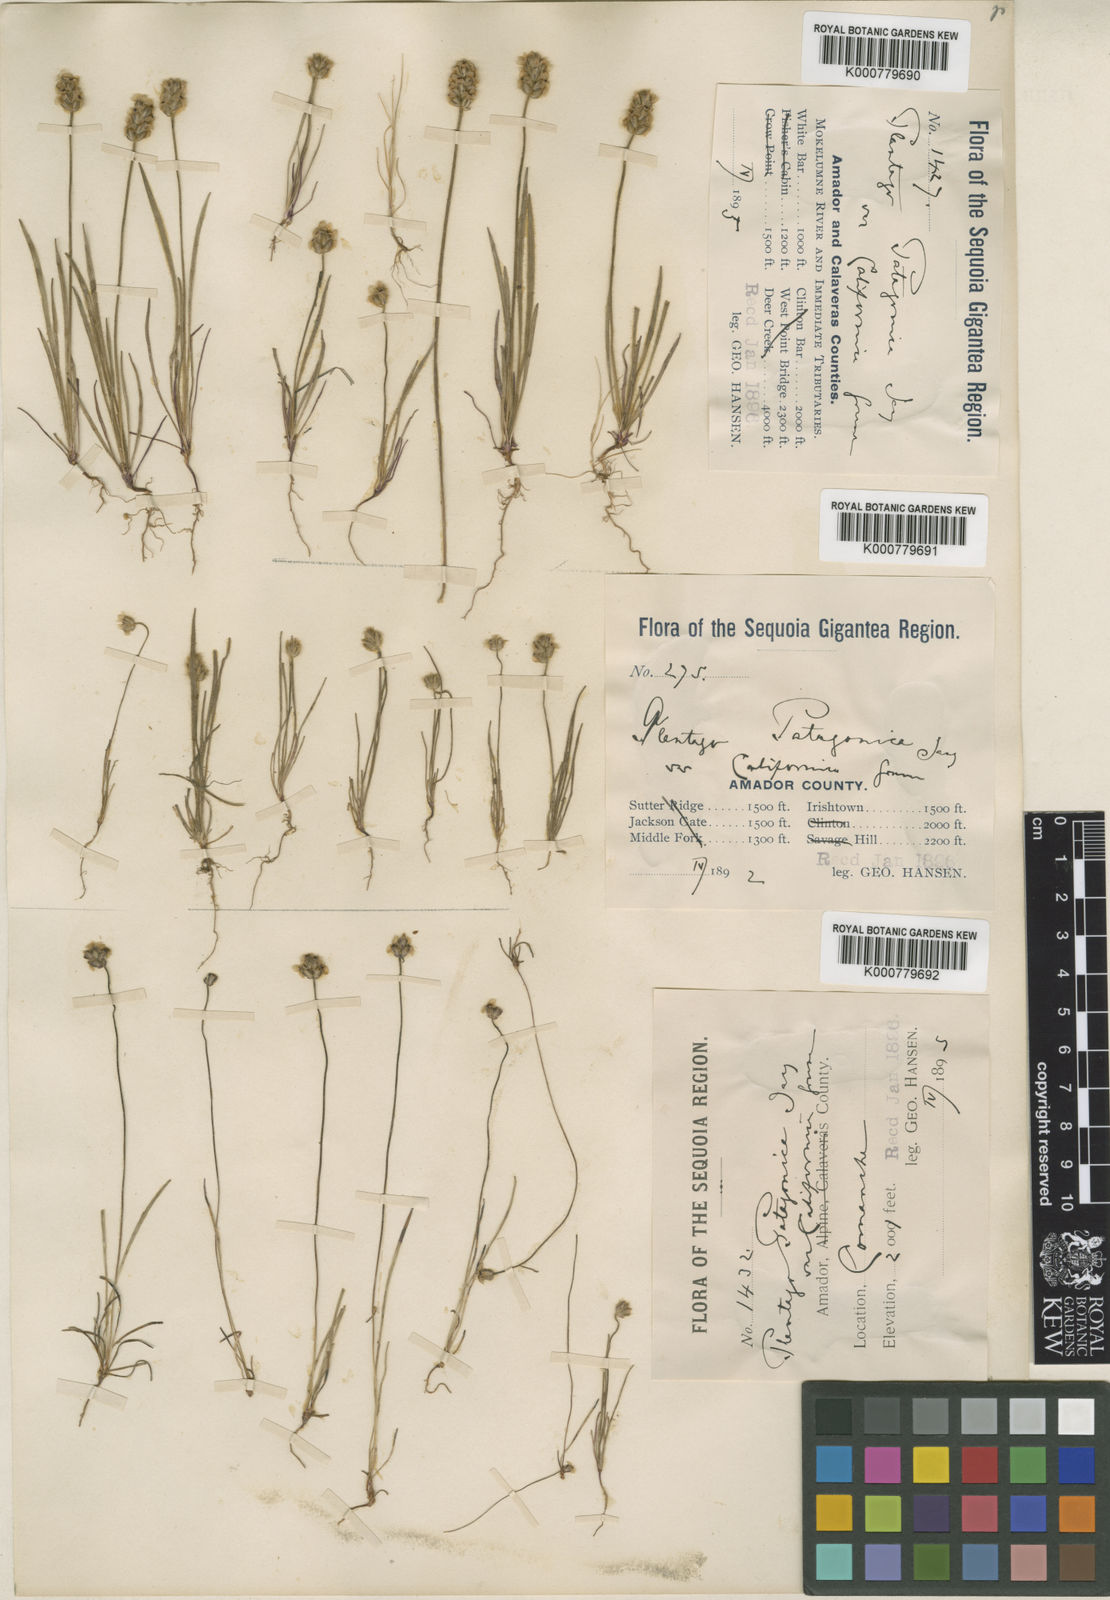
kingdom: Plantae
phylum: Tracheophyta
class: Magnoliopsida
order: Lamiales
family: Plantaginaceae
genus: Plantago
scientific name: Plantago erecta
